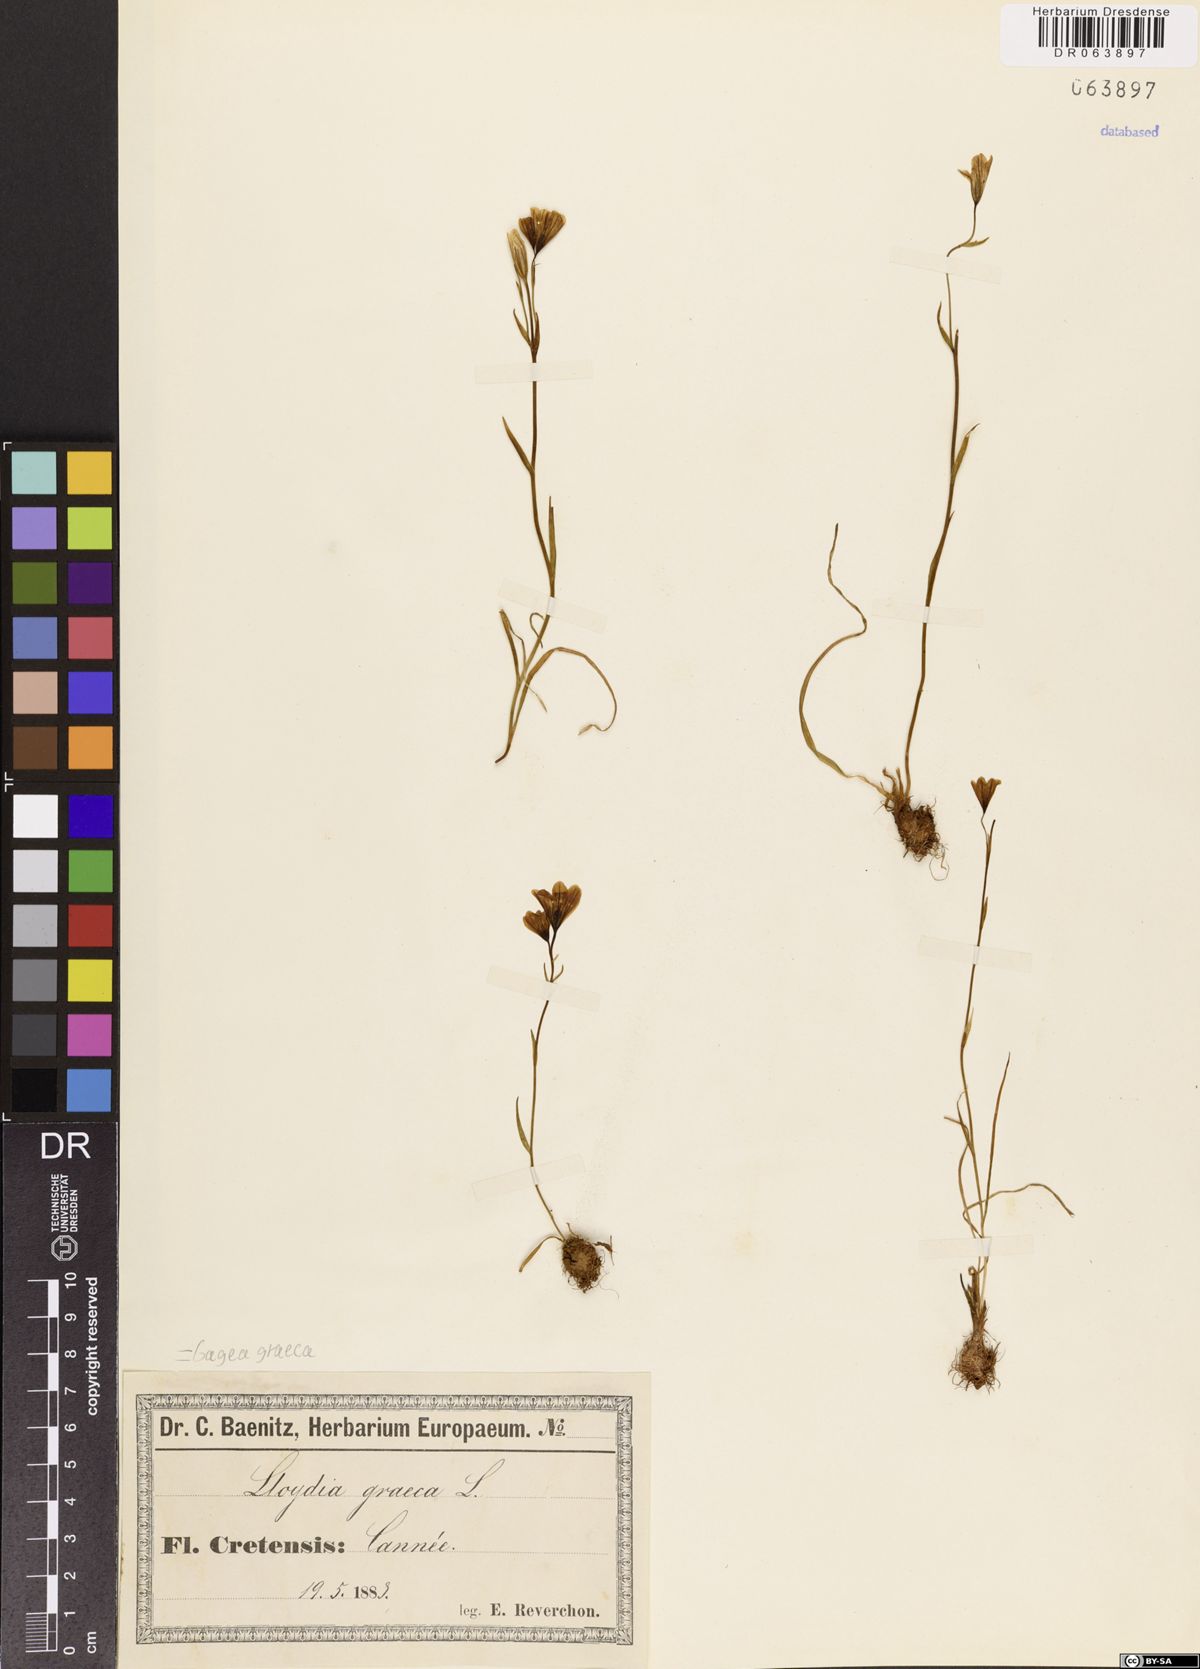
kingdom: Plantae
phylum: Tracheophyta
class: Liliopsida
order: Liliales
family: Liliaceae
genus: Gagea
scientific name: Gagea graeca
